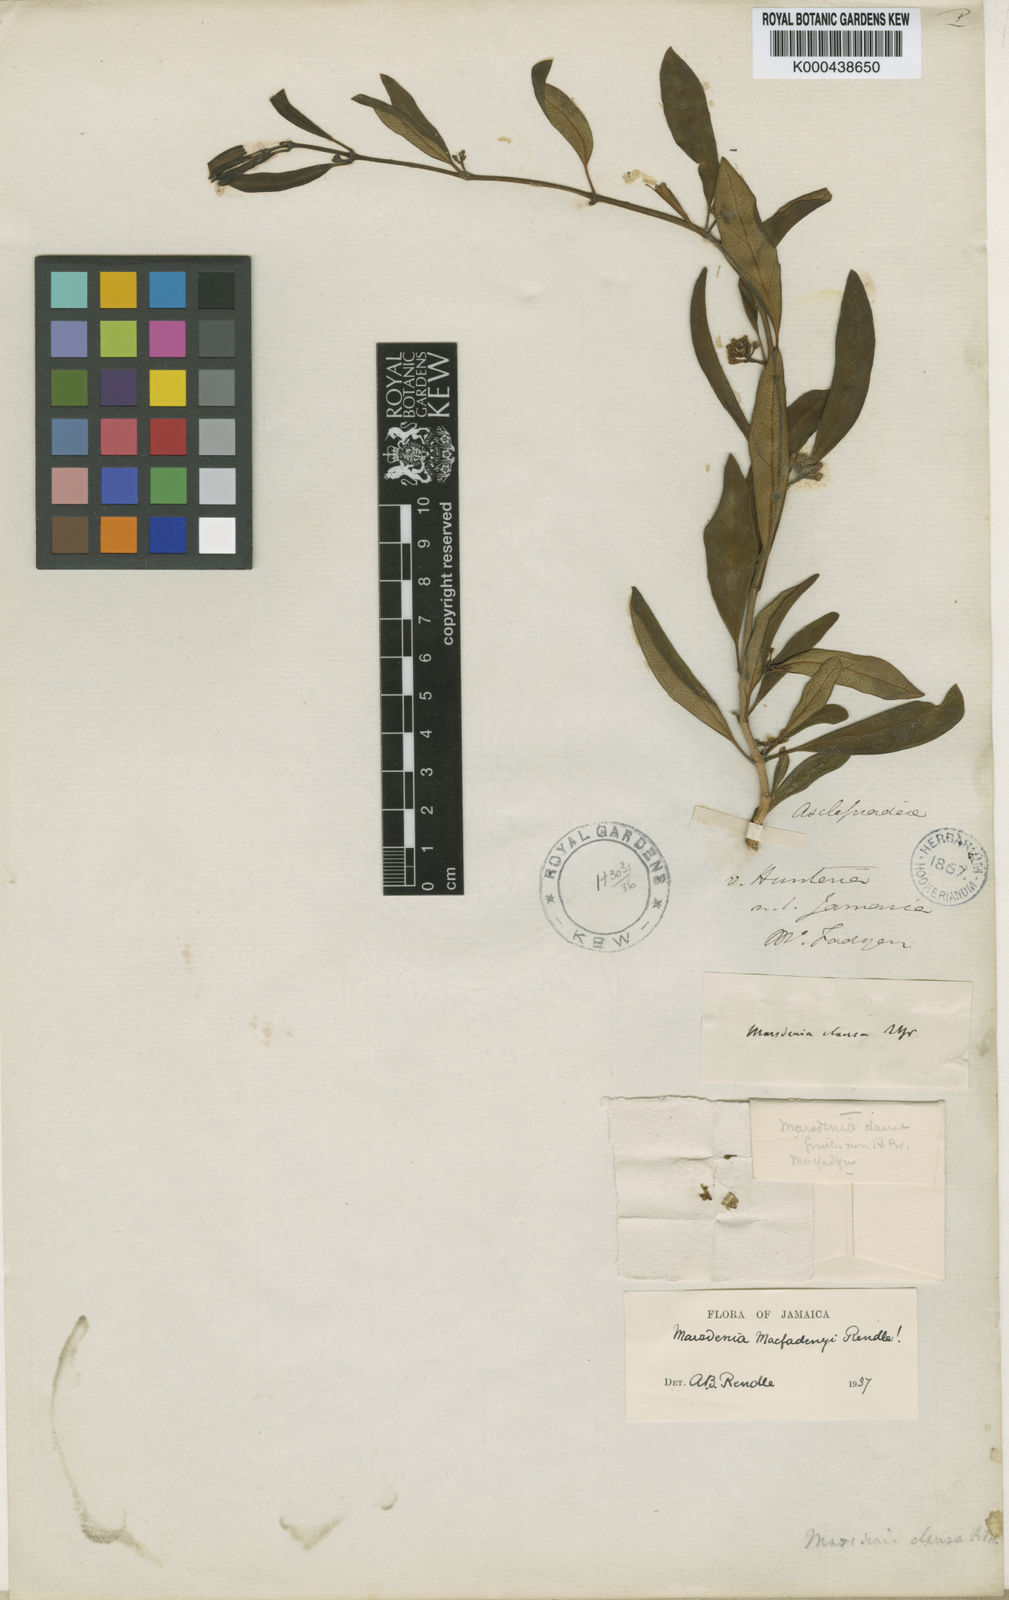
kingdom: Plantae
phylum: Tracheophyta
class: Magnoliopsida
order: Gentianales
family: Apocynaceae
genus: Ruehssia
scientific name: Ruehssia macfadyenii
